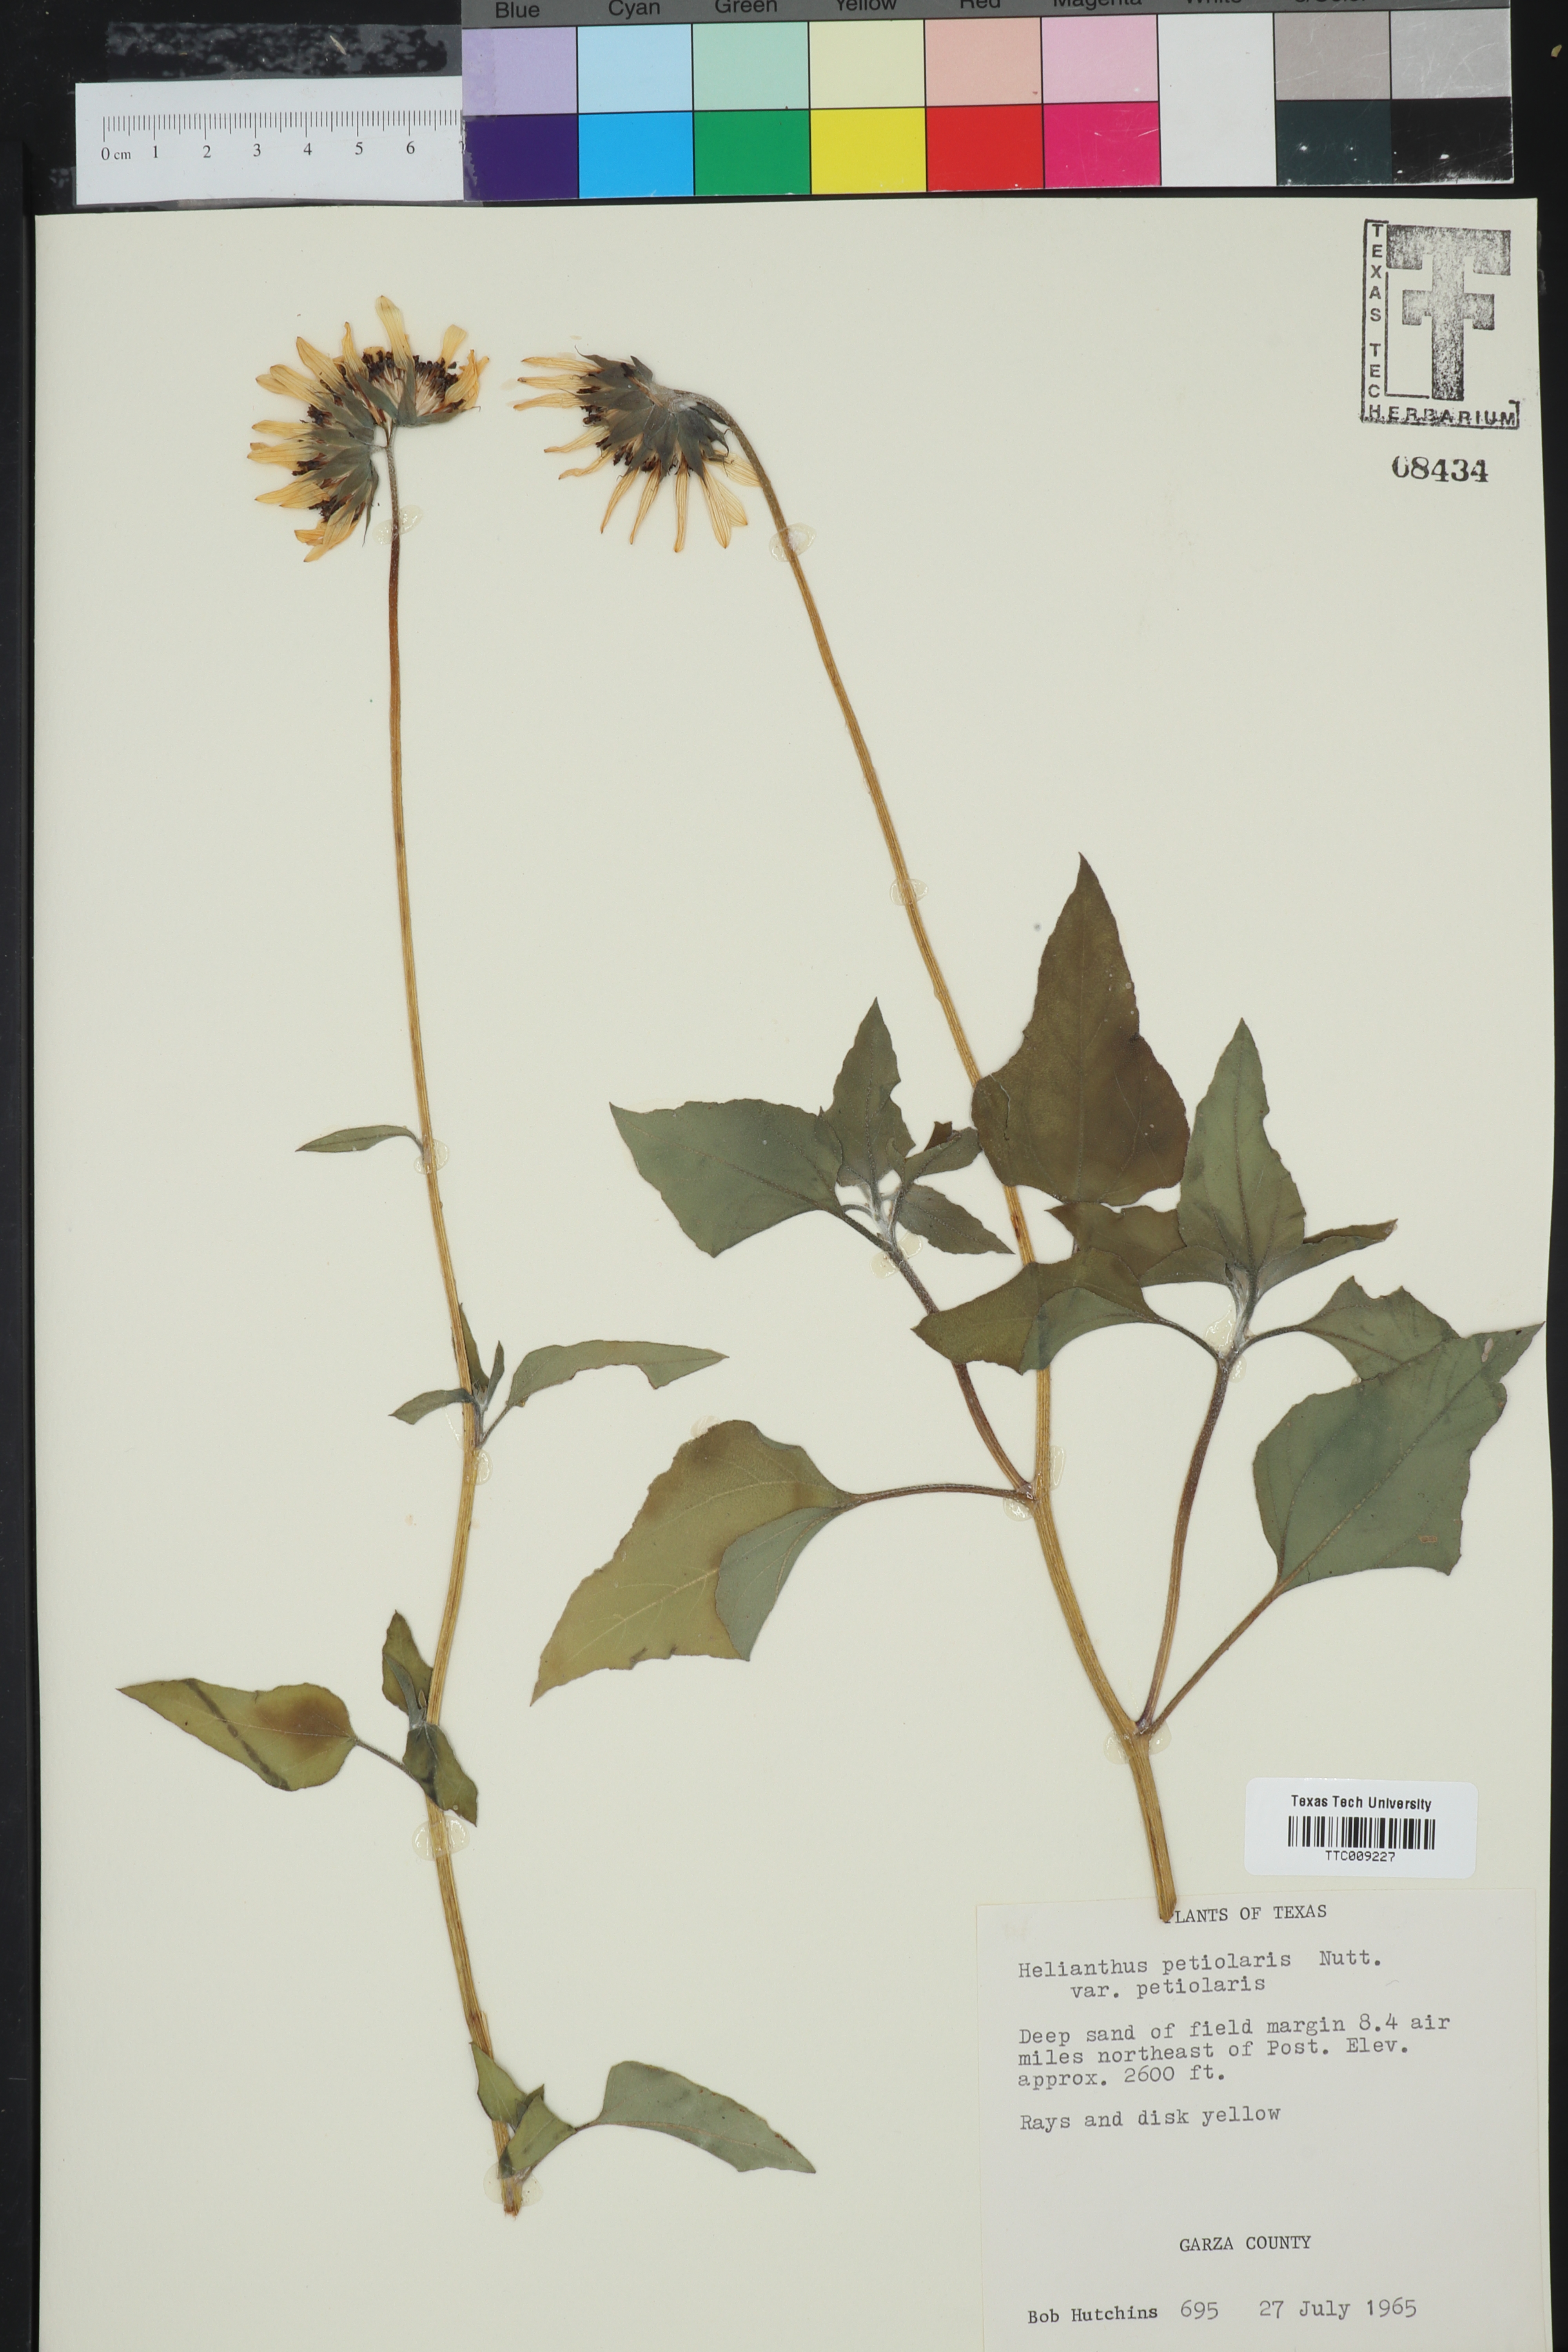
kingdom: Plantae
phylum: Tracheophyta
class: Magnoliopsida
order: Asterales
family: Asteraceae
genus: Helianthus
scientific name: Helianthus petiolaris
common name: Lesser sunflower
